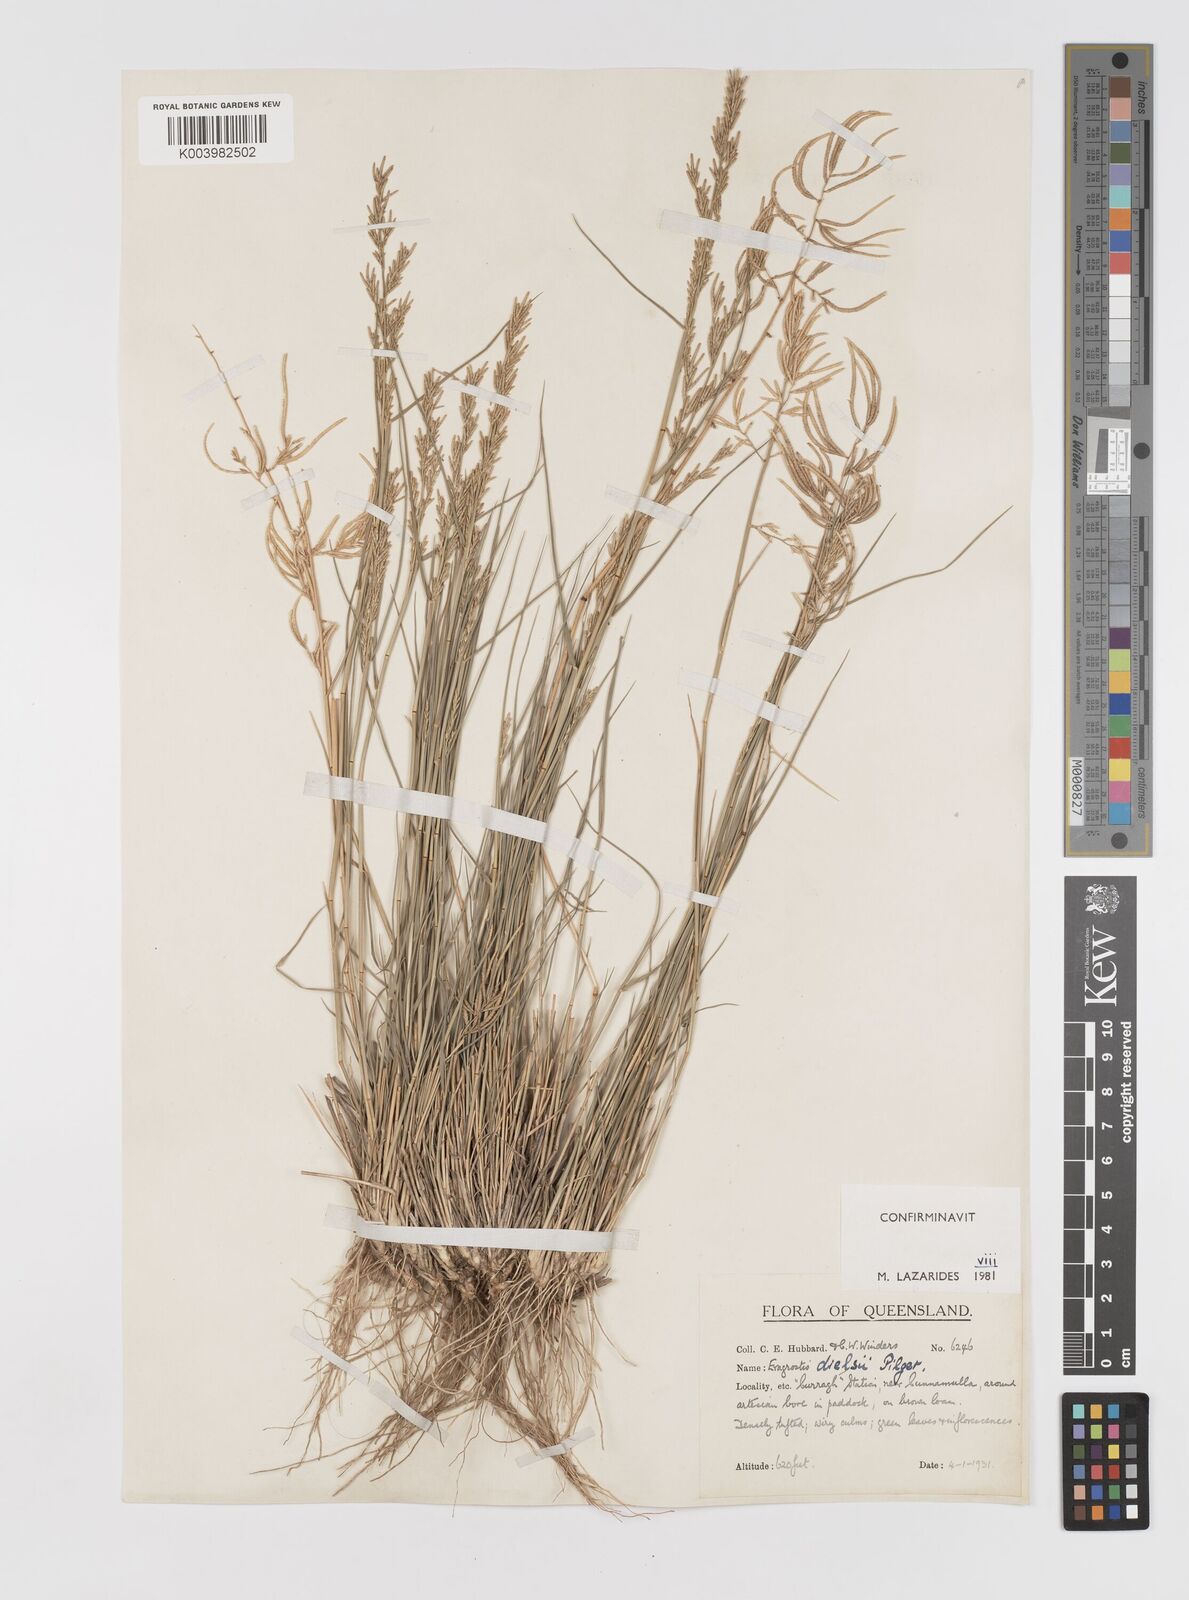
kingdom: Plantae
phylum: Tracheophyta
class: Liliopsida
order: Poales
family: Poaceae
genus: Eragrostis
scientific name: Eragrostis dielsii
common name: Lovegrass
